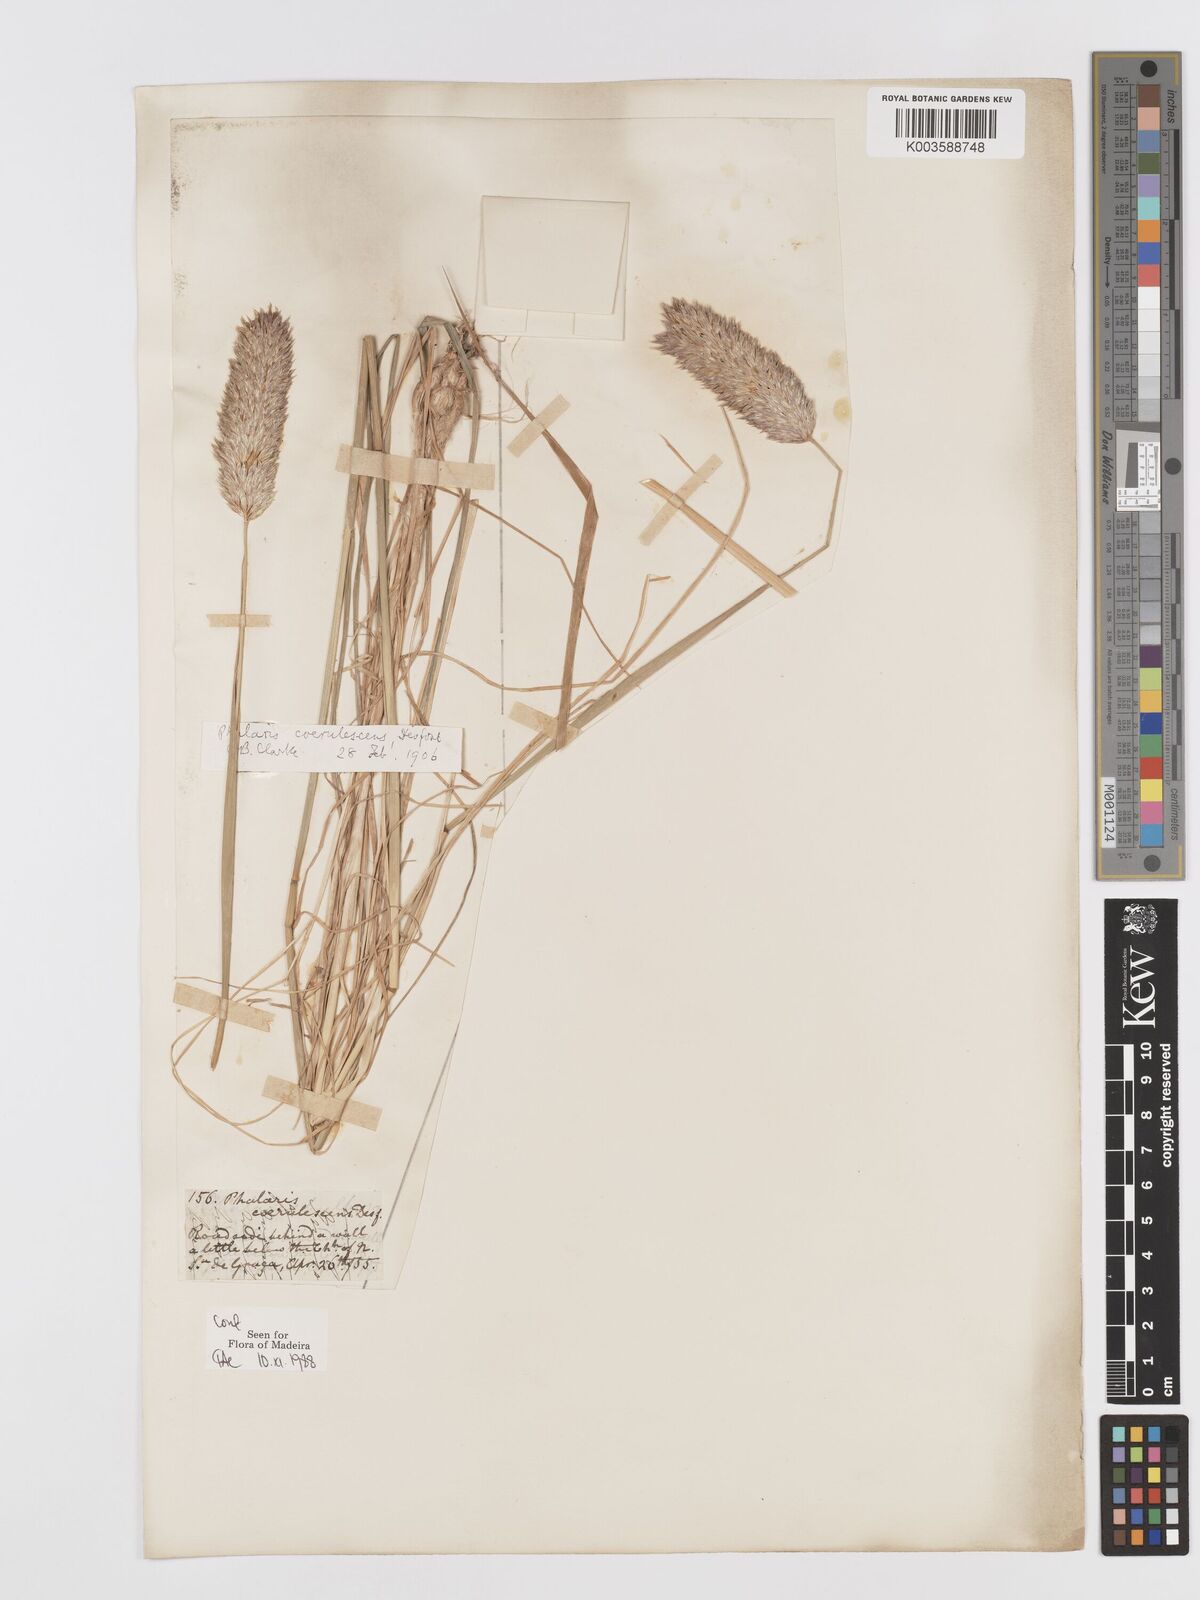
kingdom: Plantae
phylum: Tracheophyta
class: Liliopsida
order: Poales
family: Poaceae
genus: Phalaris
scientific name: Phalaris coerulescens
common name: Sunolgrass
